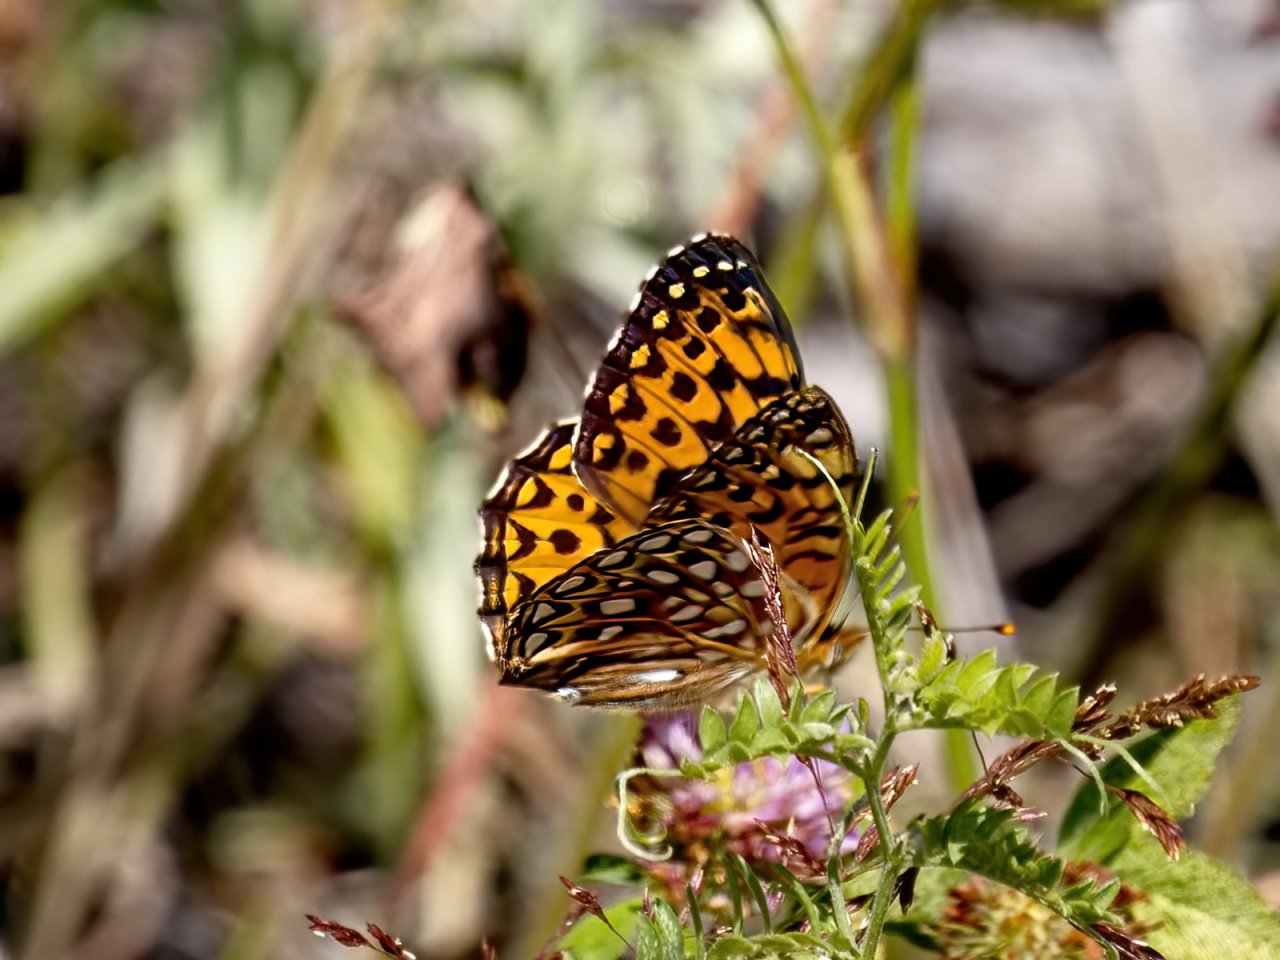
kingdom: Animalia
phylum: Arthropoda
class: Insecta
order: Lepidoptera
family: Nymphalidae
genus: Speyeria
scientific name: Speyeria atlantis
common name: Atlantis Fritillary
